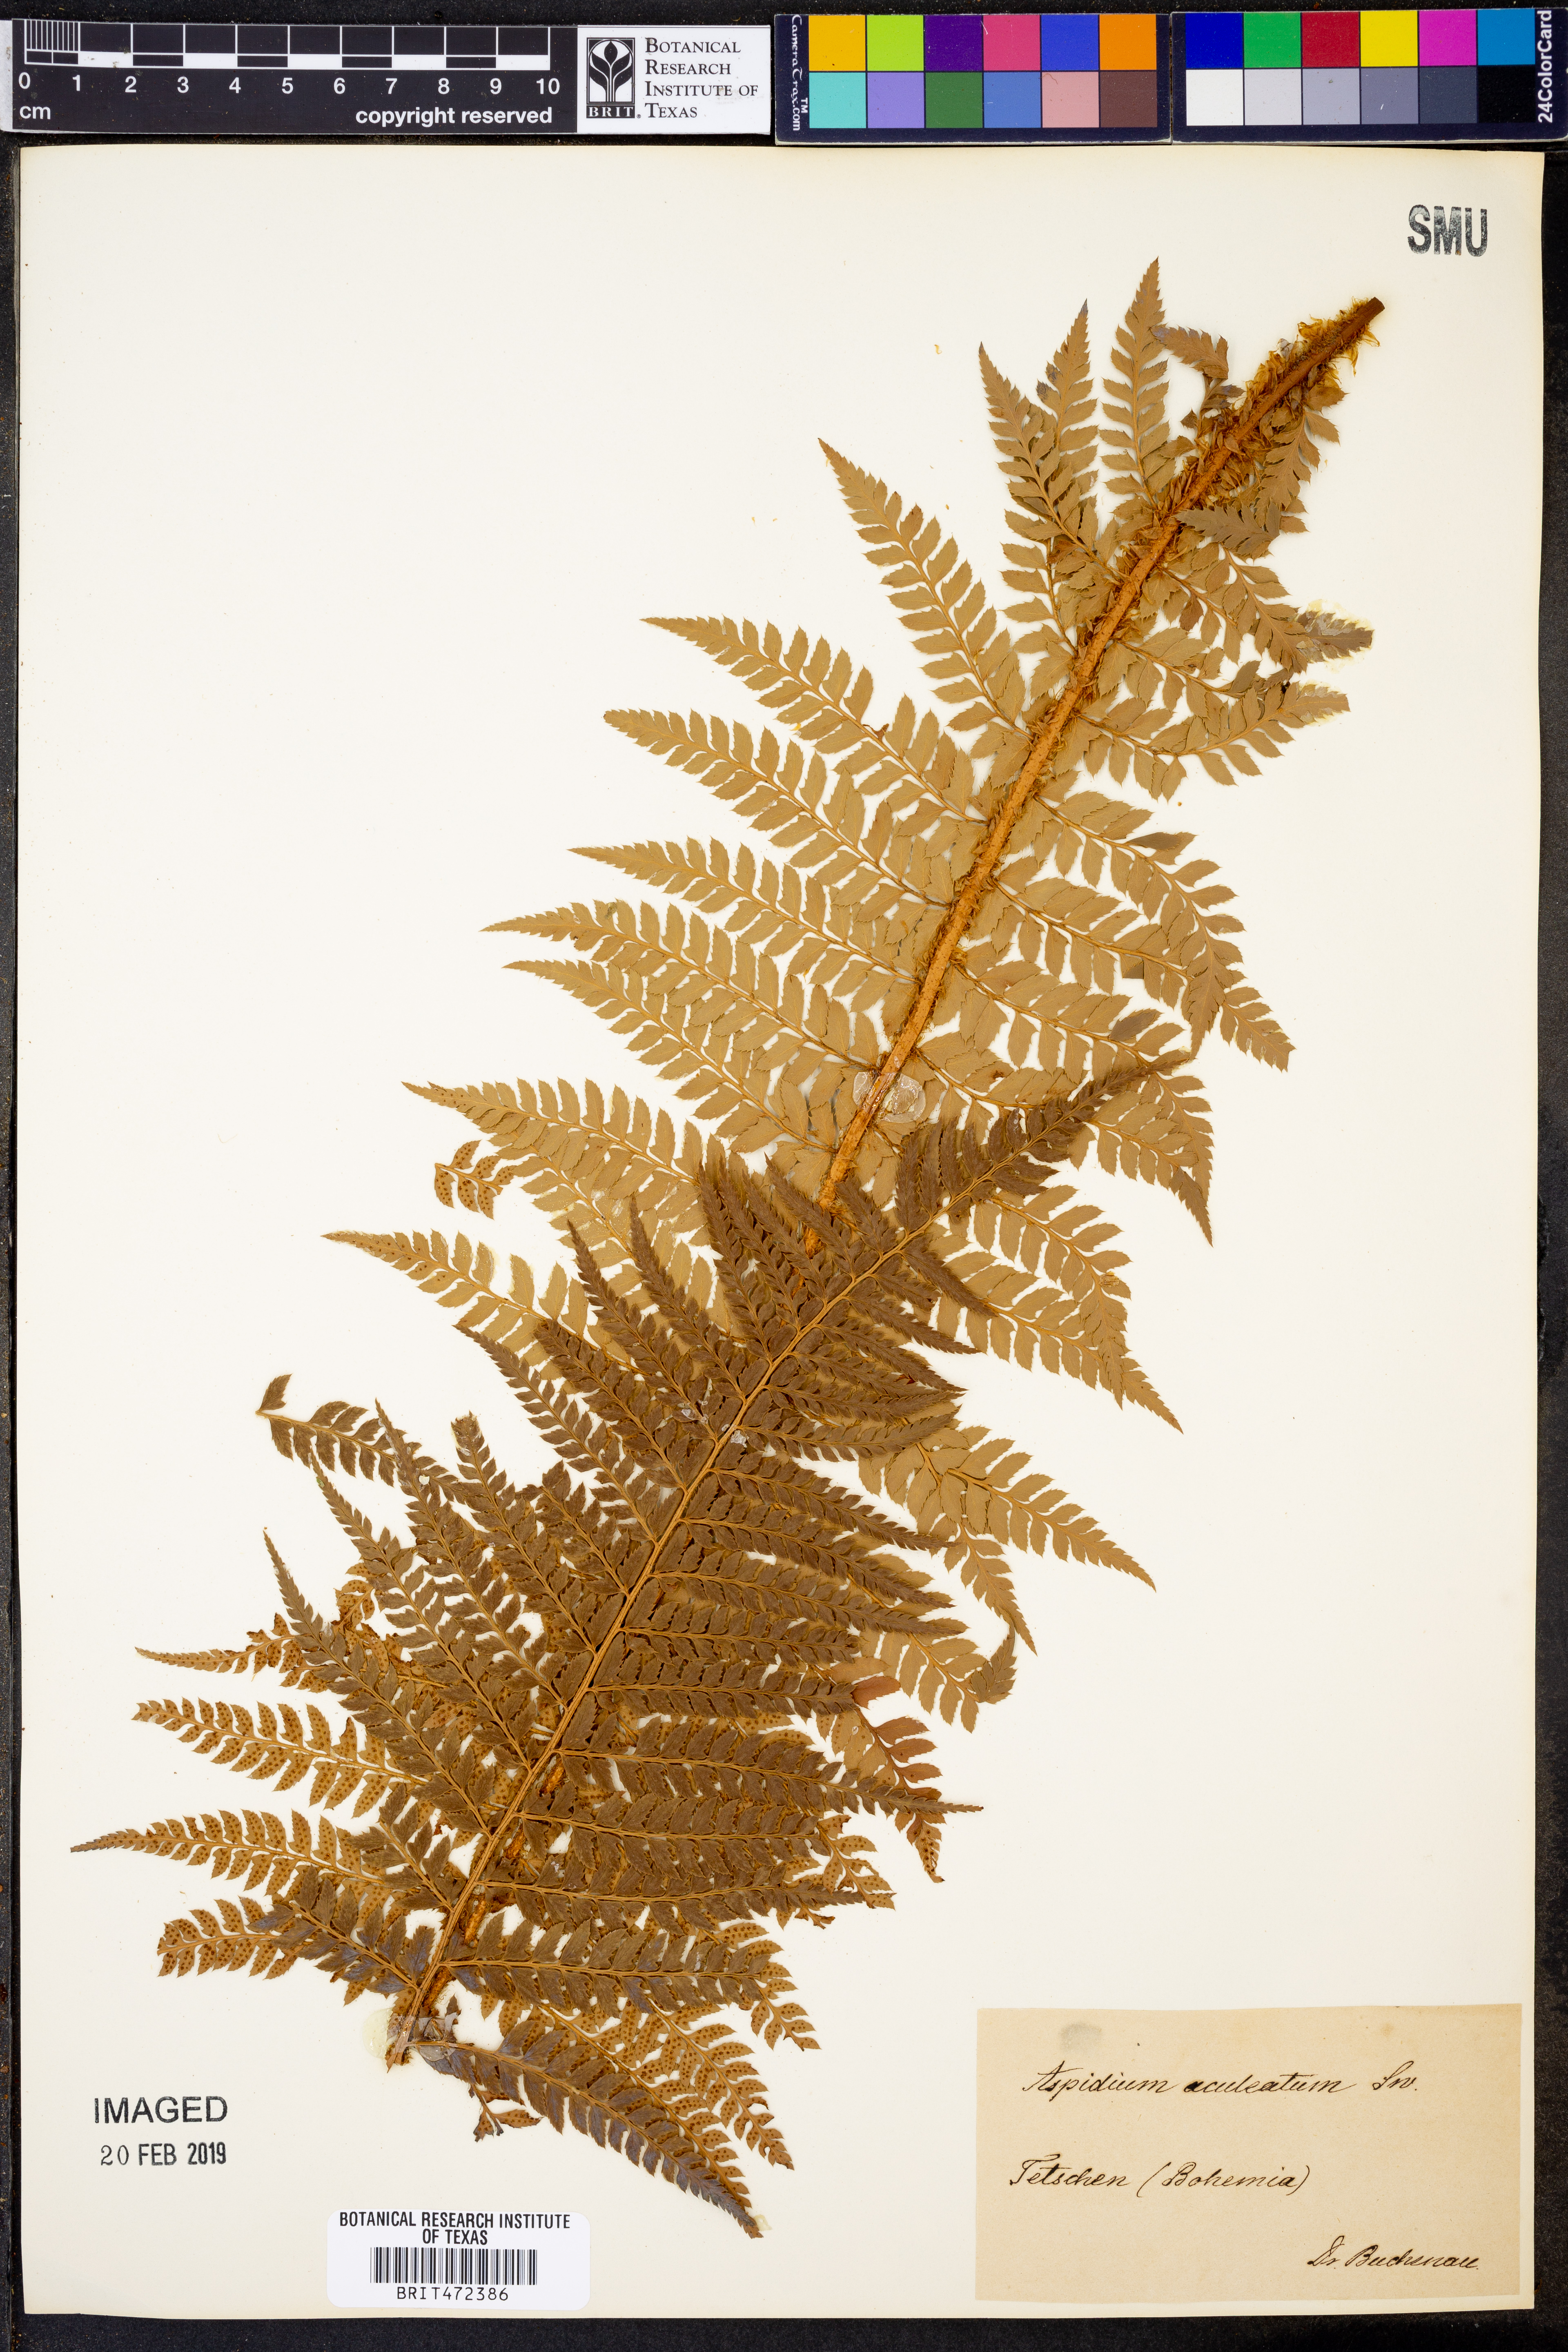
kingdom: Plantae
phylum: Tracheophyta
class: Polypodiopsida
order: Polypodiales
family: Dryopteridaceae
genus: Polystichum
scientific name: Polystichum aculeatum
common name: Hard shield-fern
